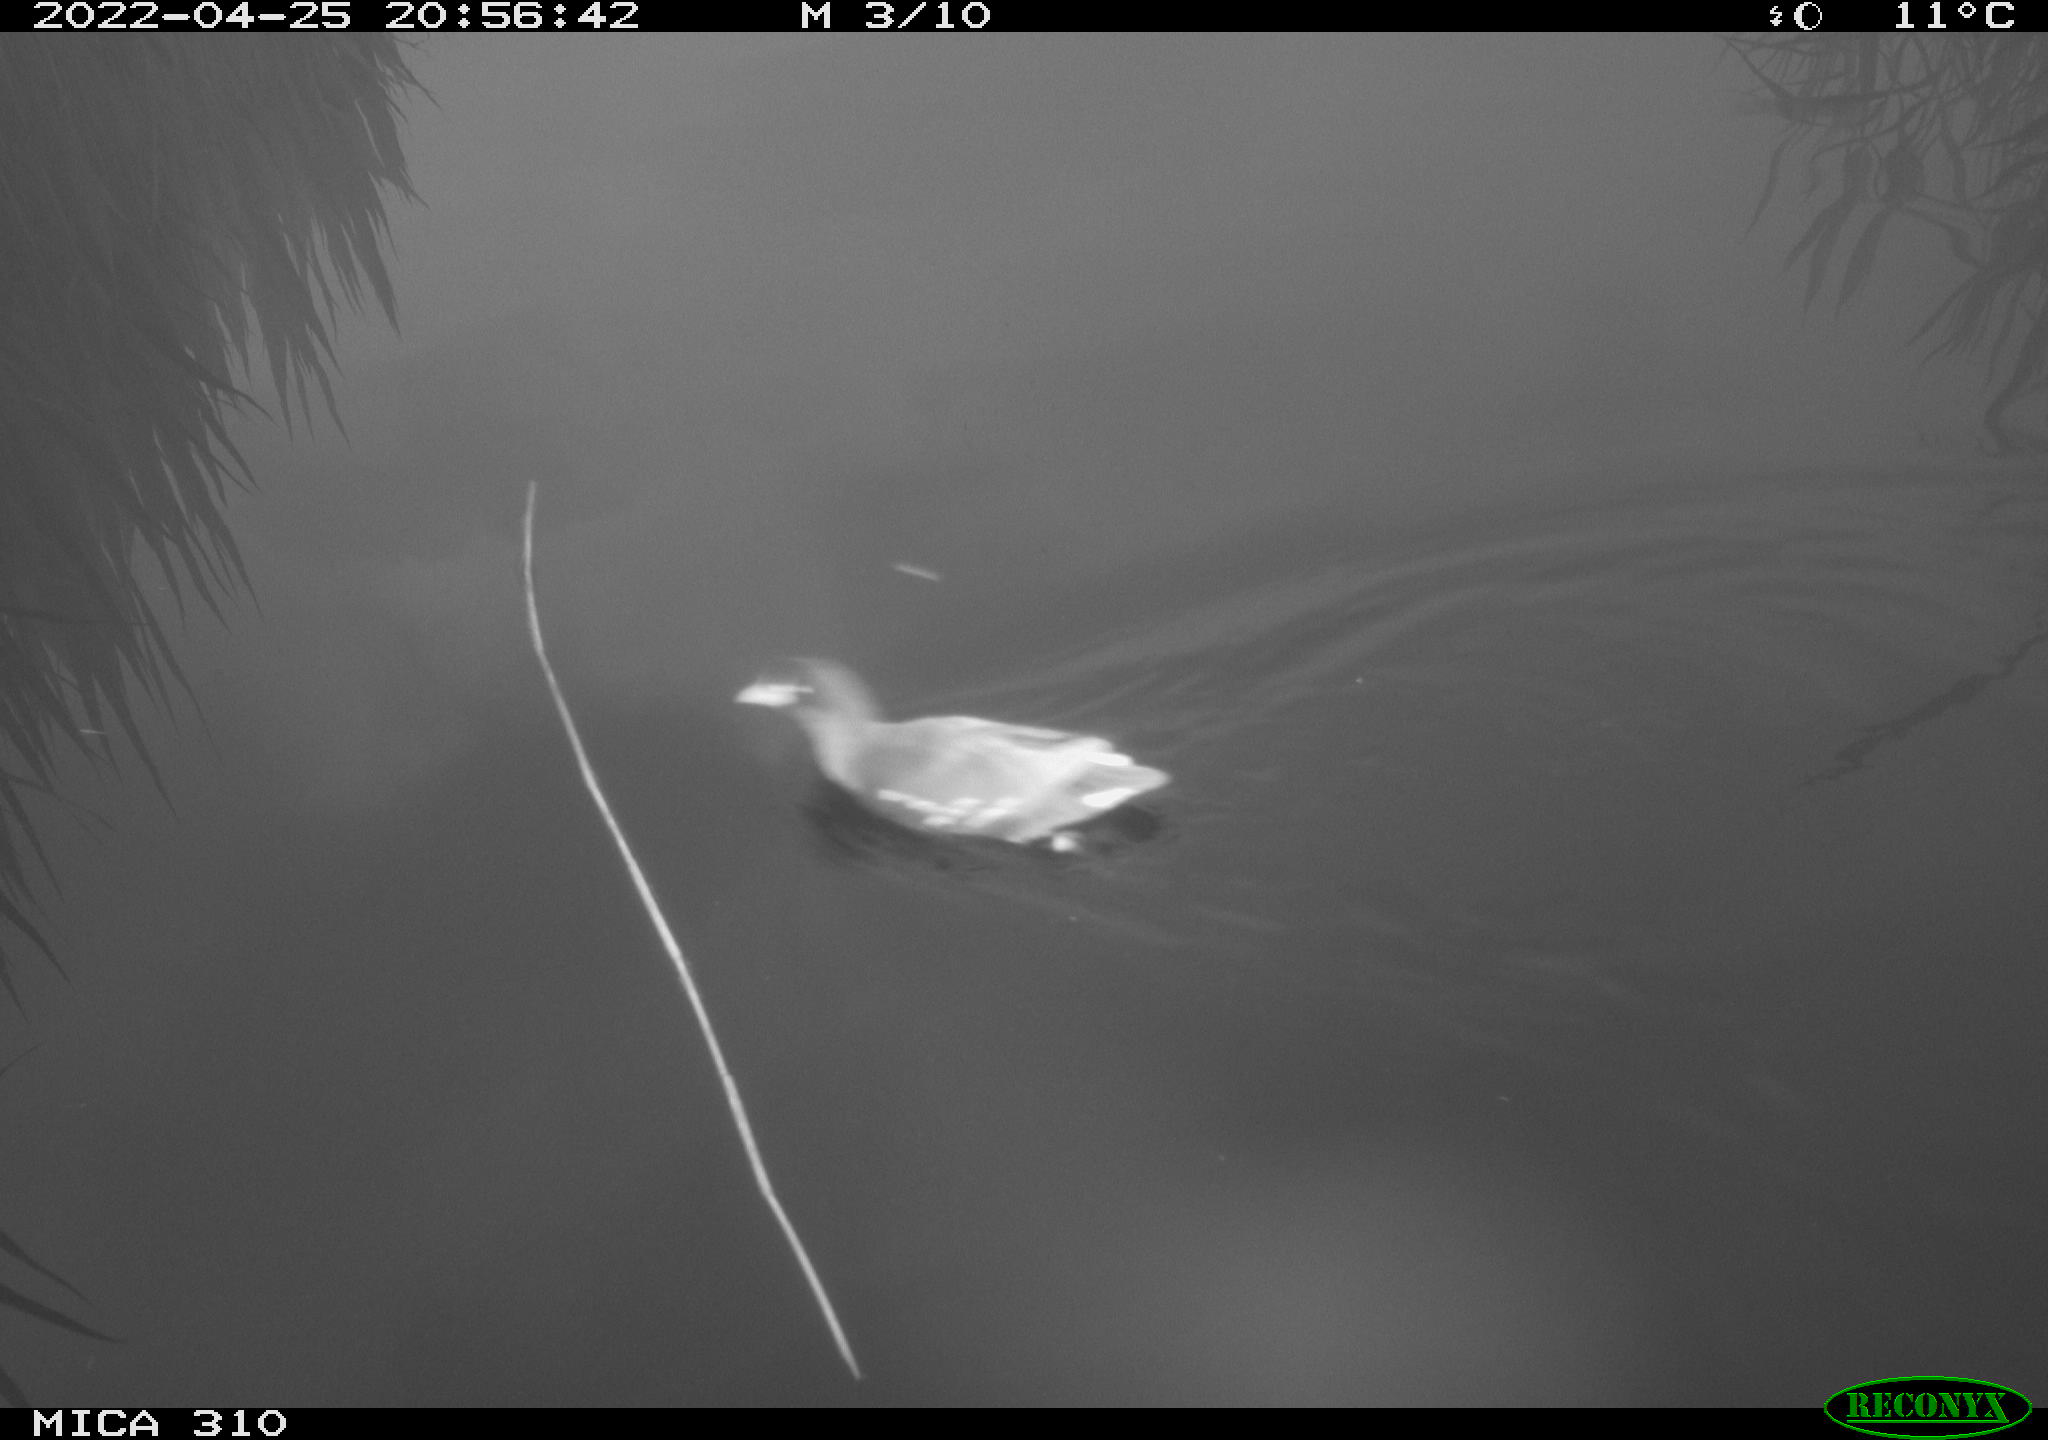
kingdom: Animalia
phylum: Chordata
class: Aves
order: Gruiformes
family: Rallidae
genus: Gallinula
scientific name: Gallinula chloropus
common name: Common moorhen
